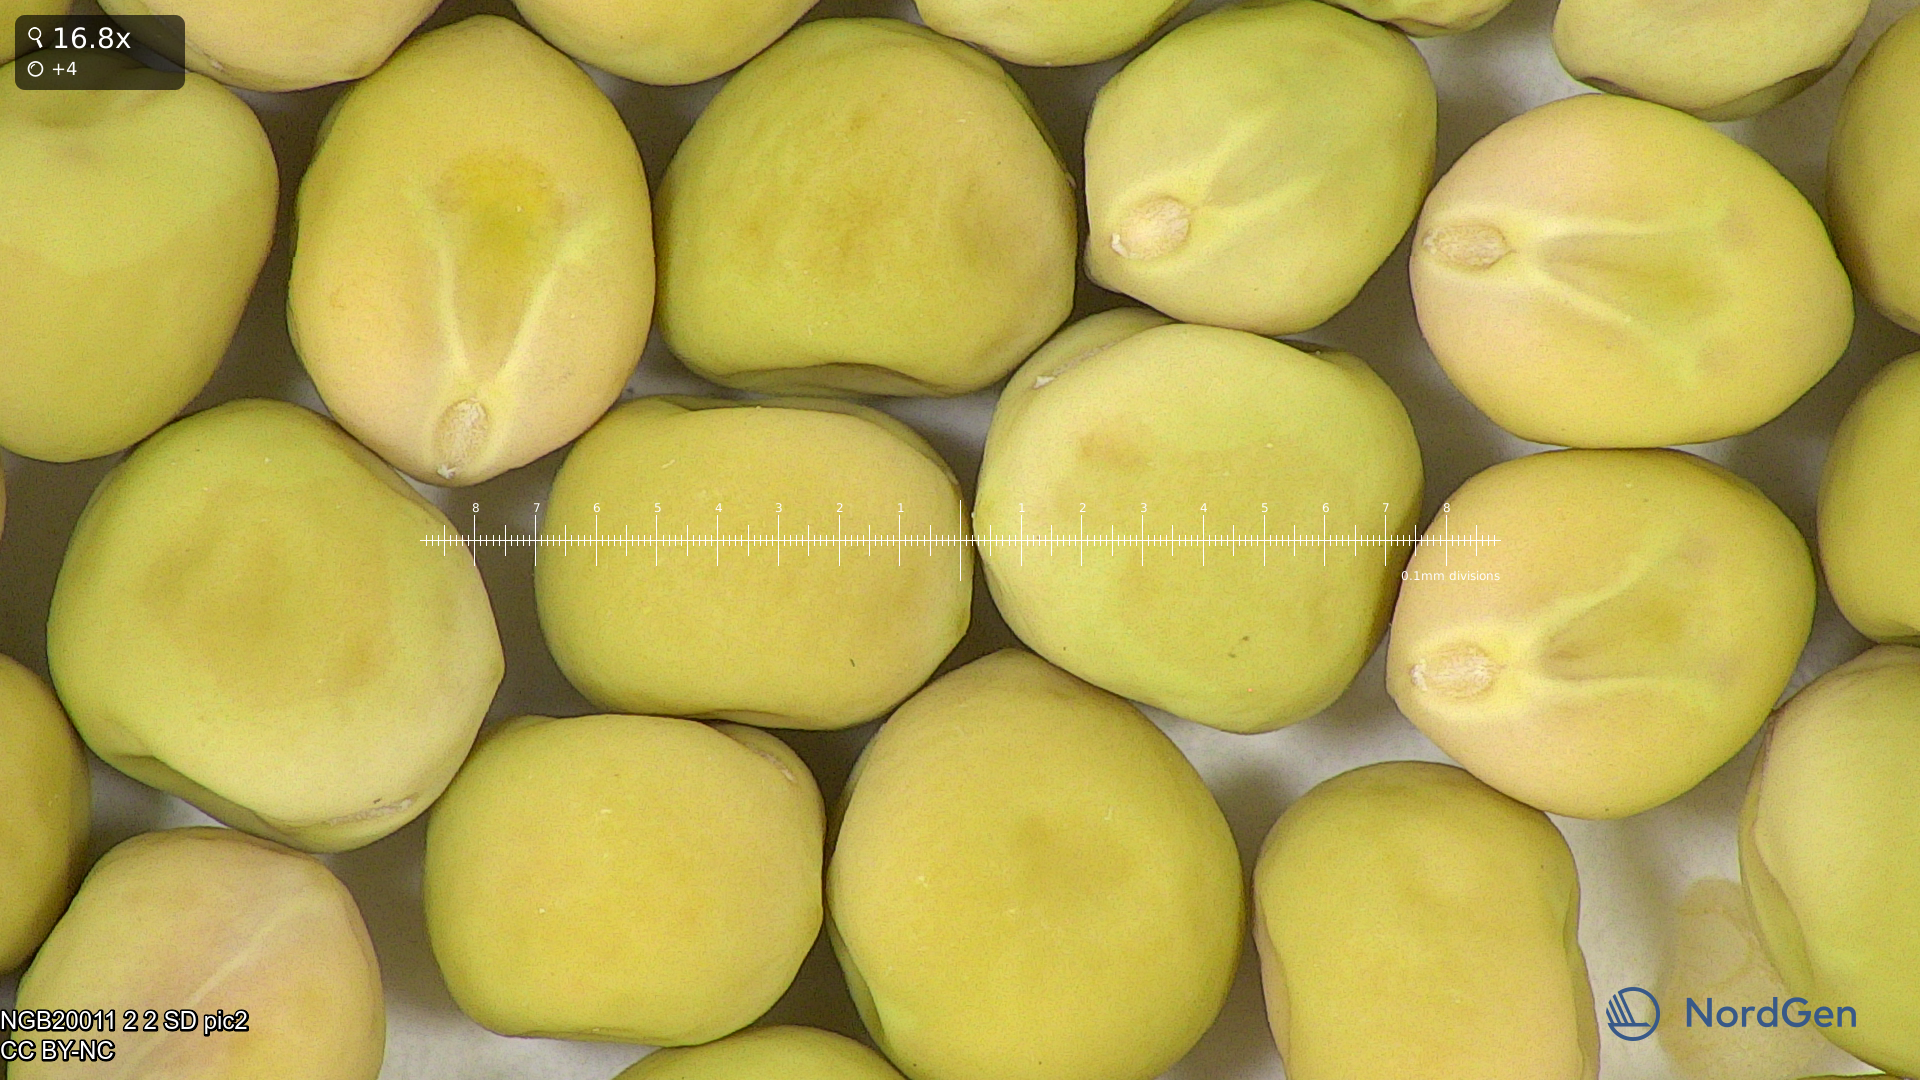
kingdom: Plantae
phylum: Tracheophyta
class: Magnoliopsida
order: Fabales
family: Fabaceae
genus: Lathyrus
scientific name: Lathyrus oleraceus
